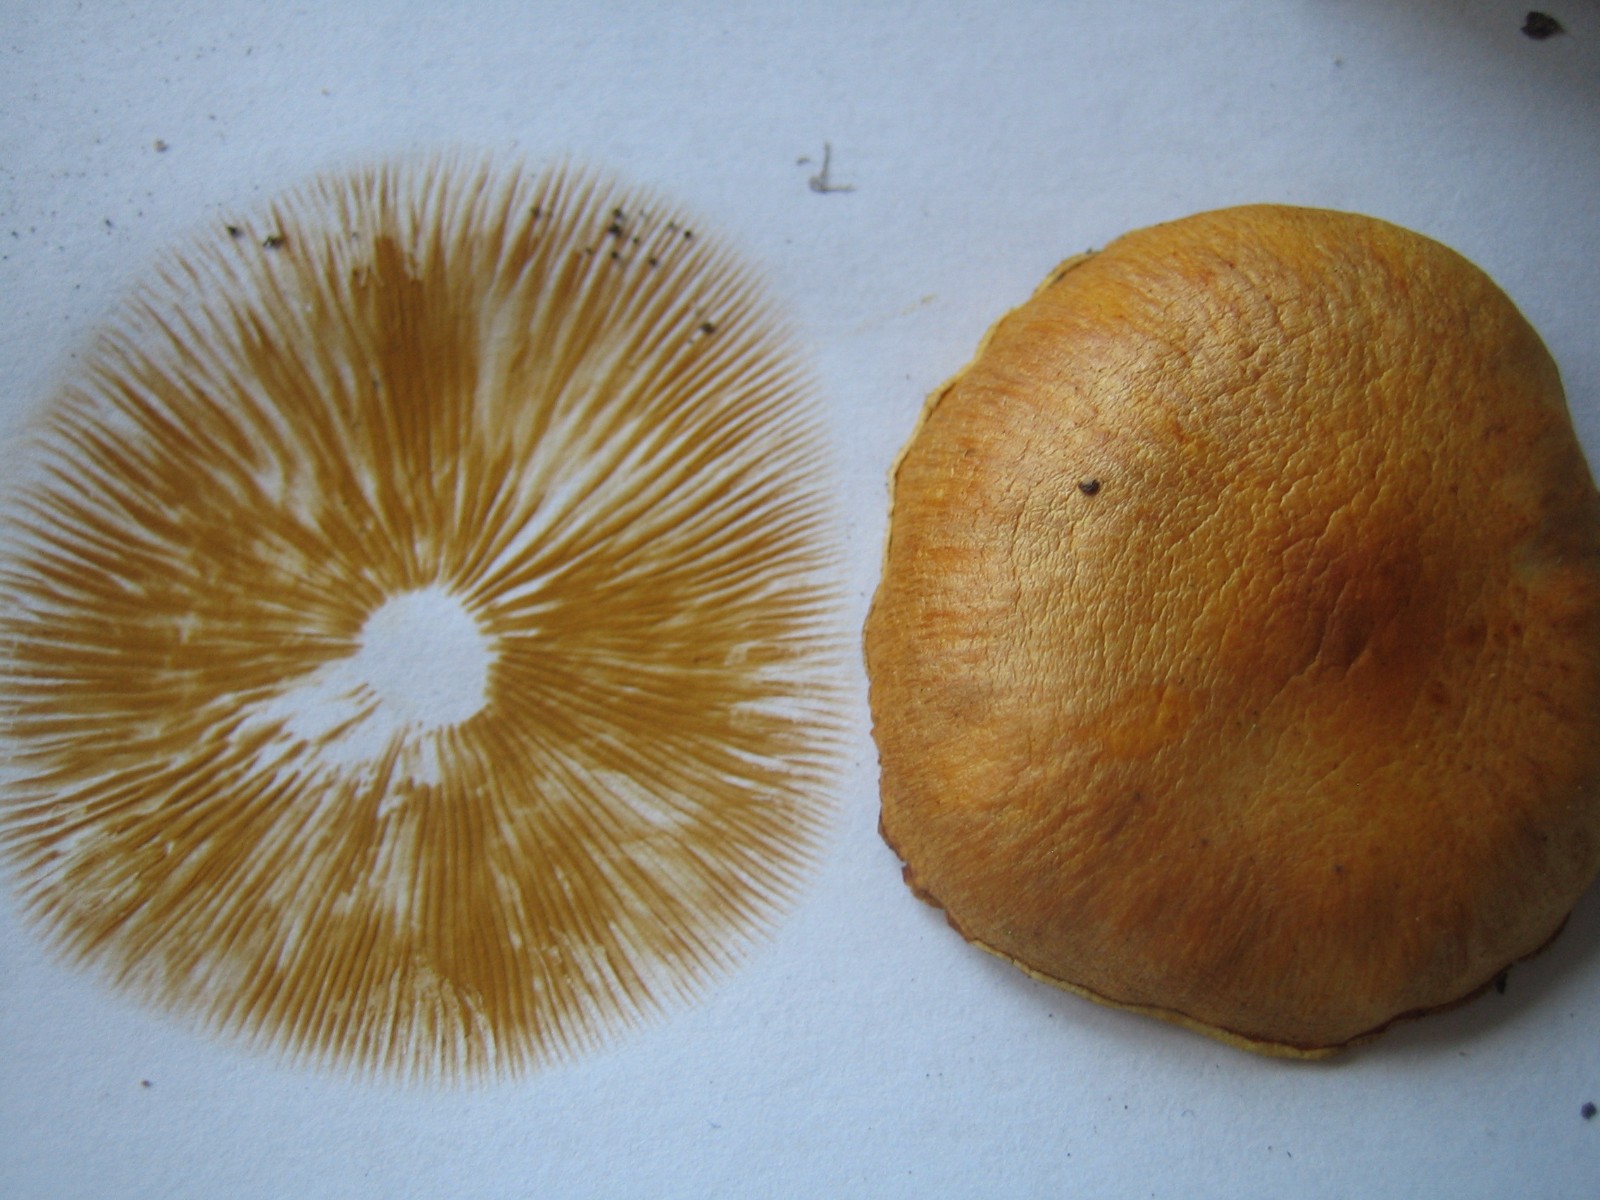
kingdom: Fungi
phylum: Basidiomycota
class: Agaricomycetes
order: Agaricales
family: Hymenogastraceae
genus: Gymnopilus
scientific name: Gymnopilus penetrans
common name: plettet flammehat
